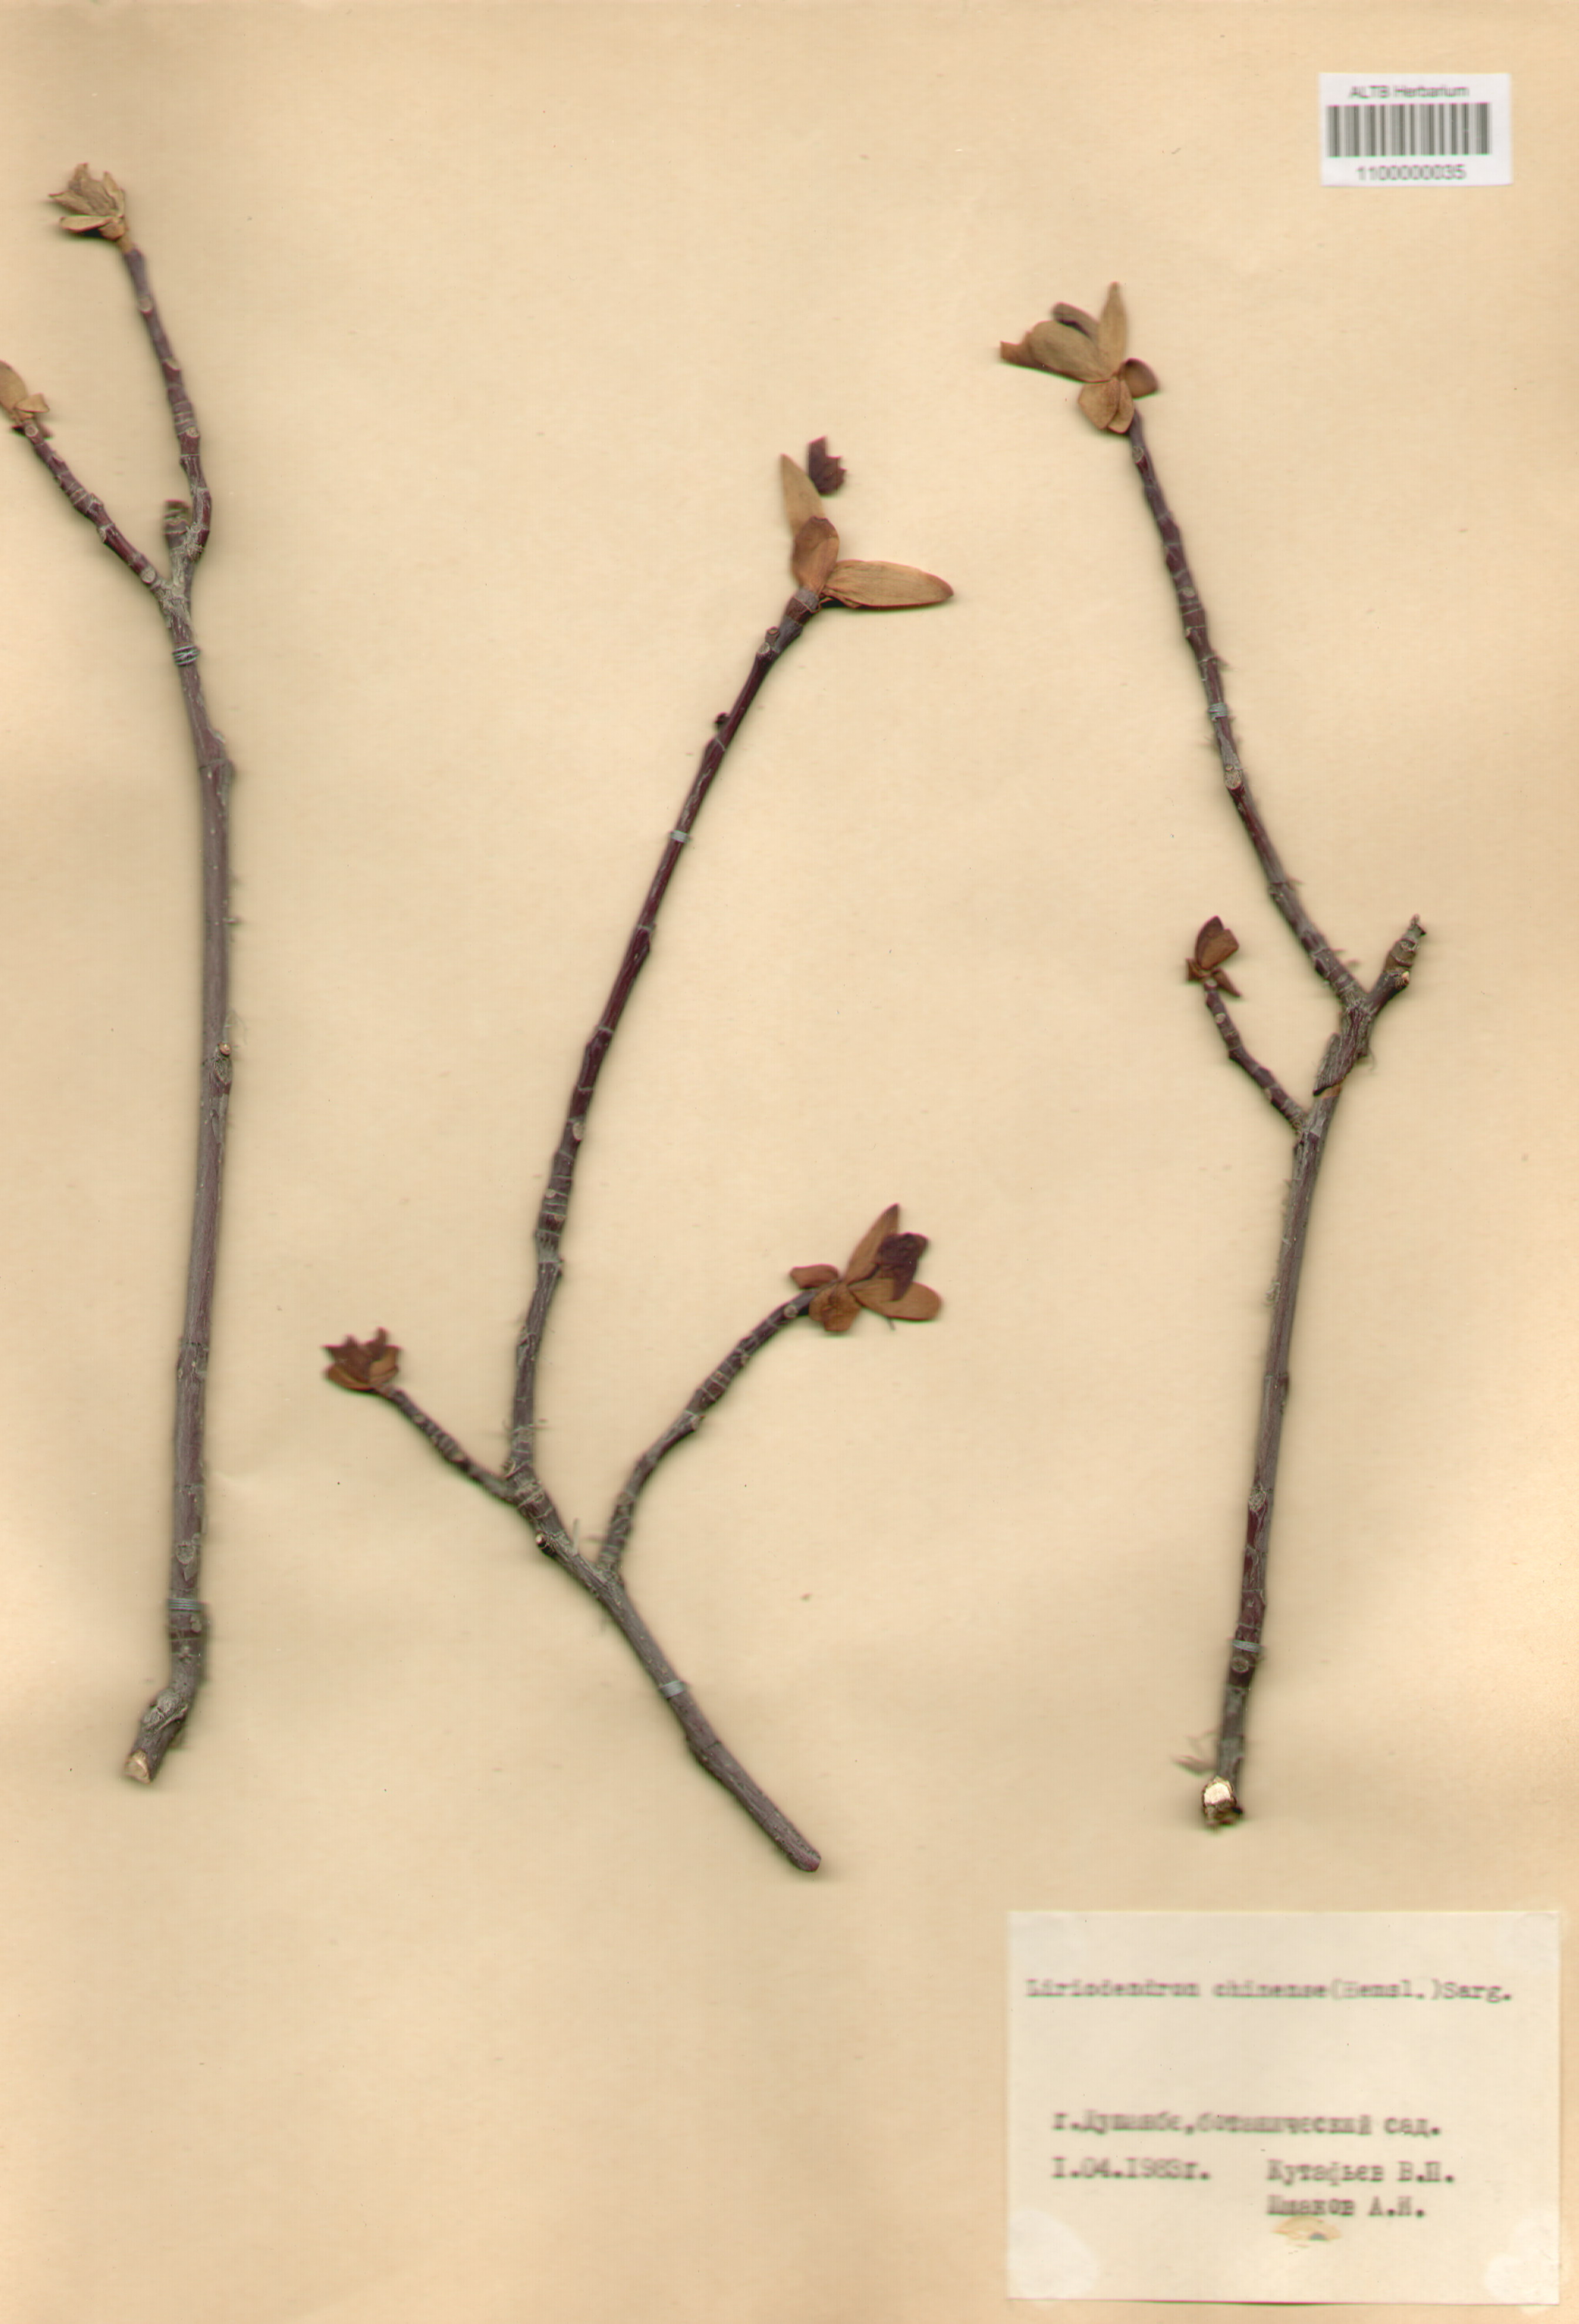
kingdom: Plantae
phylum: Tracheophyta
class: Magnoliopsida
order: Magnoliales
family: Magnoliaceae
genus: Liriodendron
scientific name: Liriodendron chinense
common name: Chinese tuliptree
